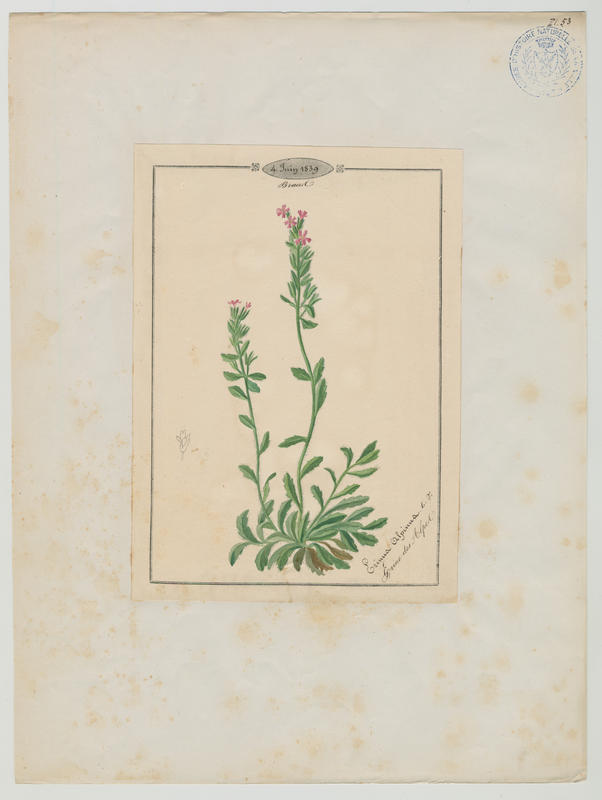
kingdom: Plantae
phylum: Tracheophyta
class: Magnoliopsida
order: Lamiales
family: Plantaginaceae
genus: Erinus
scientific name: Erinus alpinus
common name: Fairy foxglove
